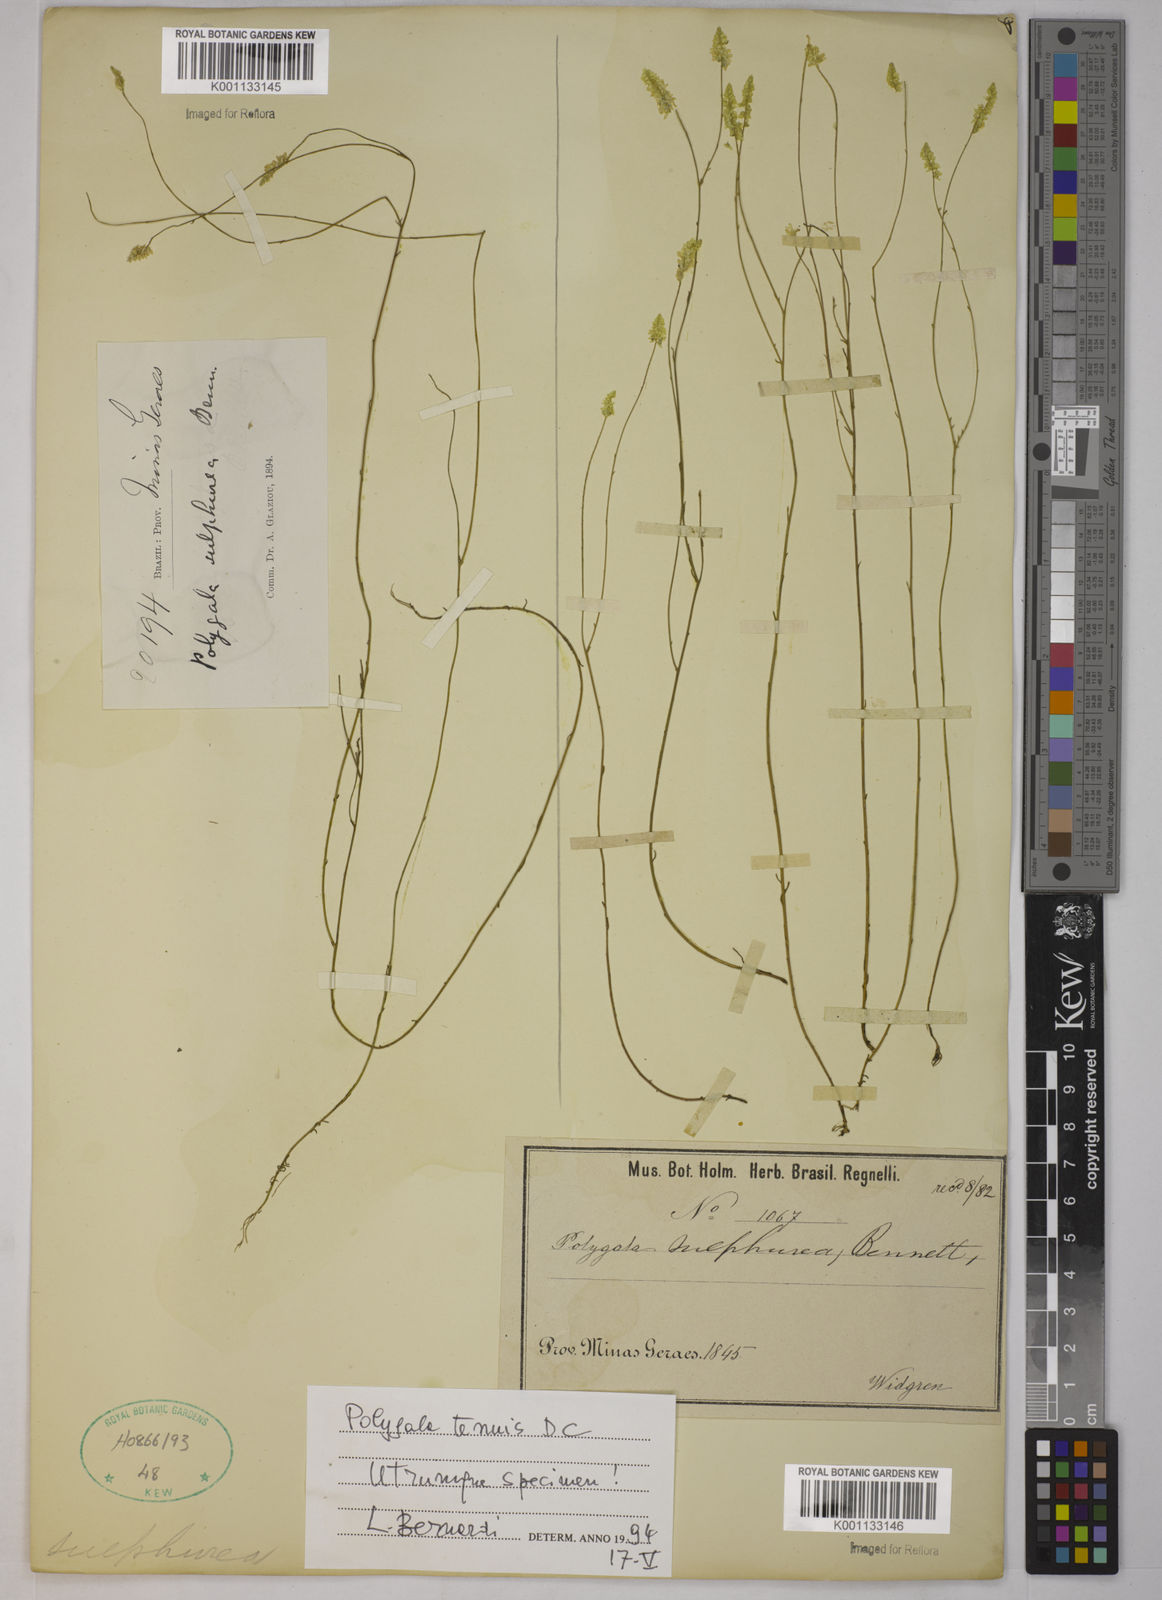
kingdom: Plantae
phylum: Tracheophyta
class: Magnoliopsida
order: Fabales
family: Polygalaceae
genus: Polygala
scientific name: Polygala tenuis
